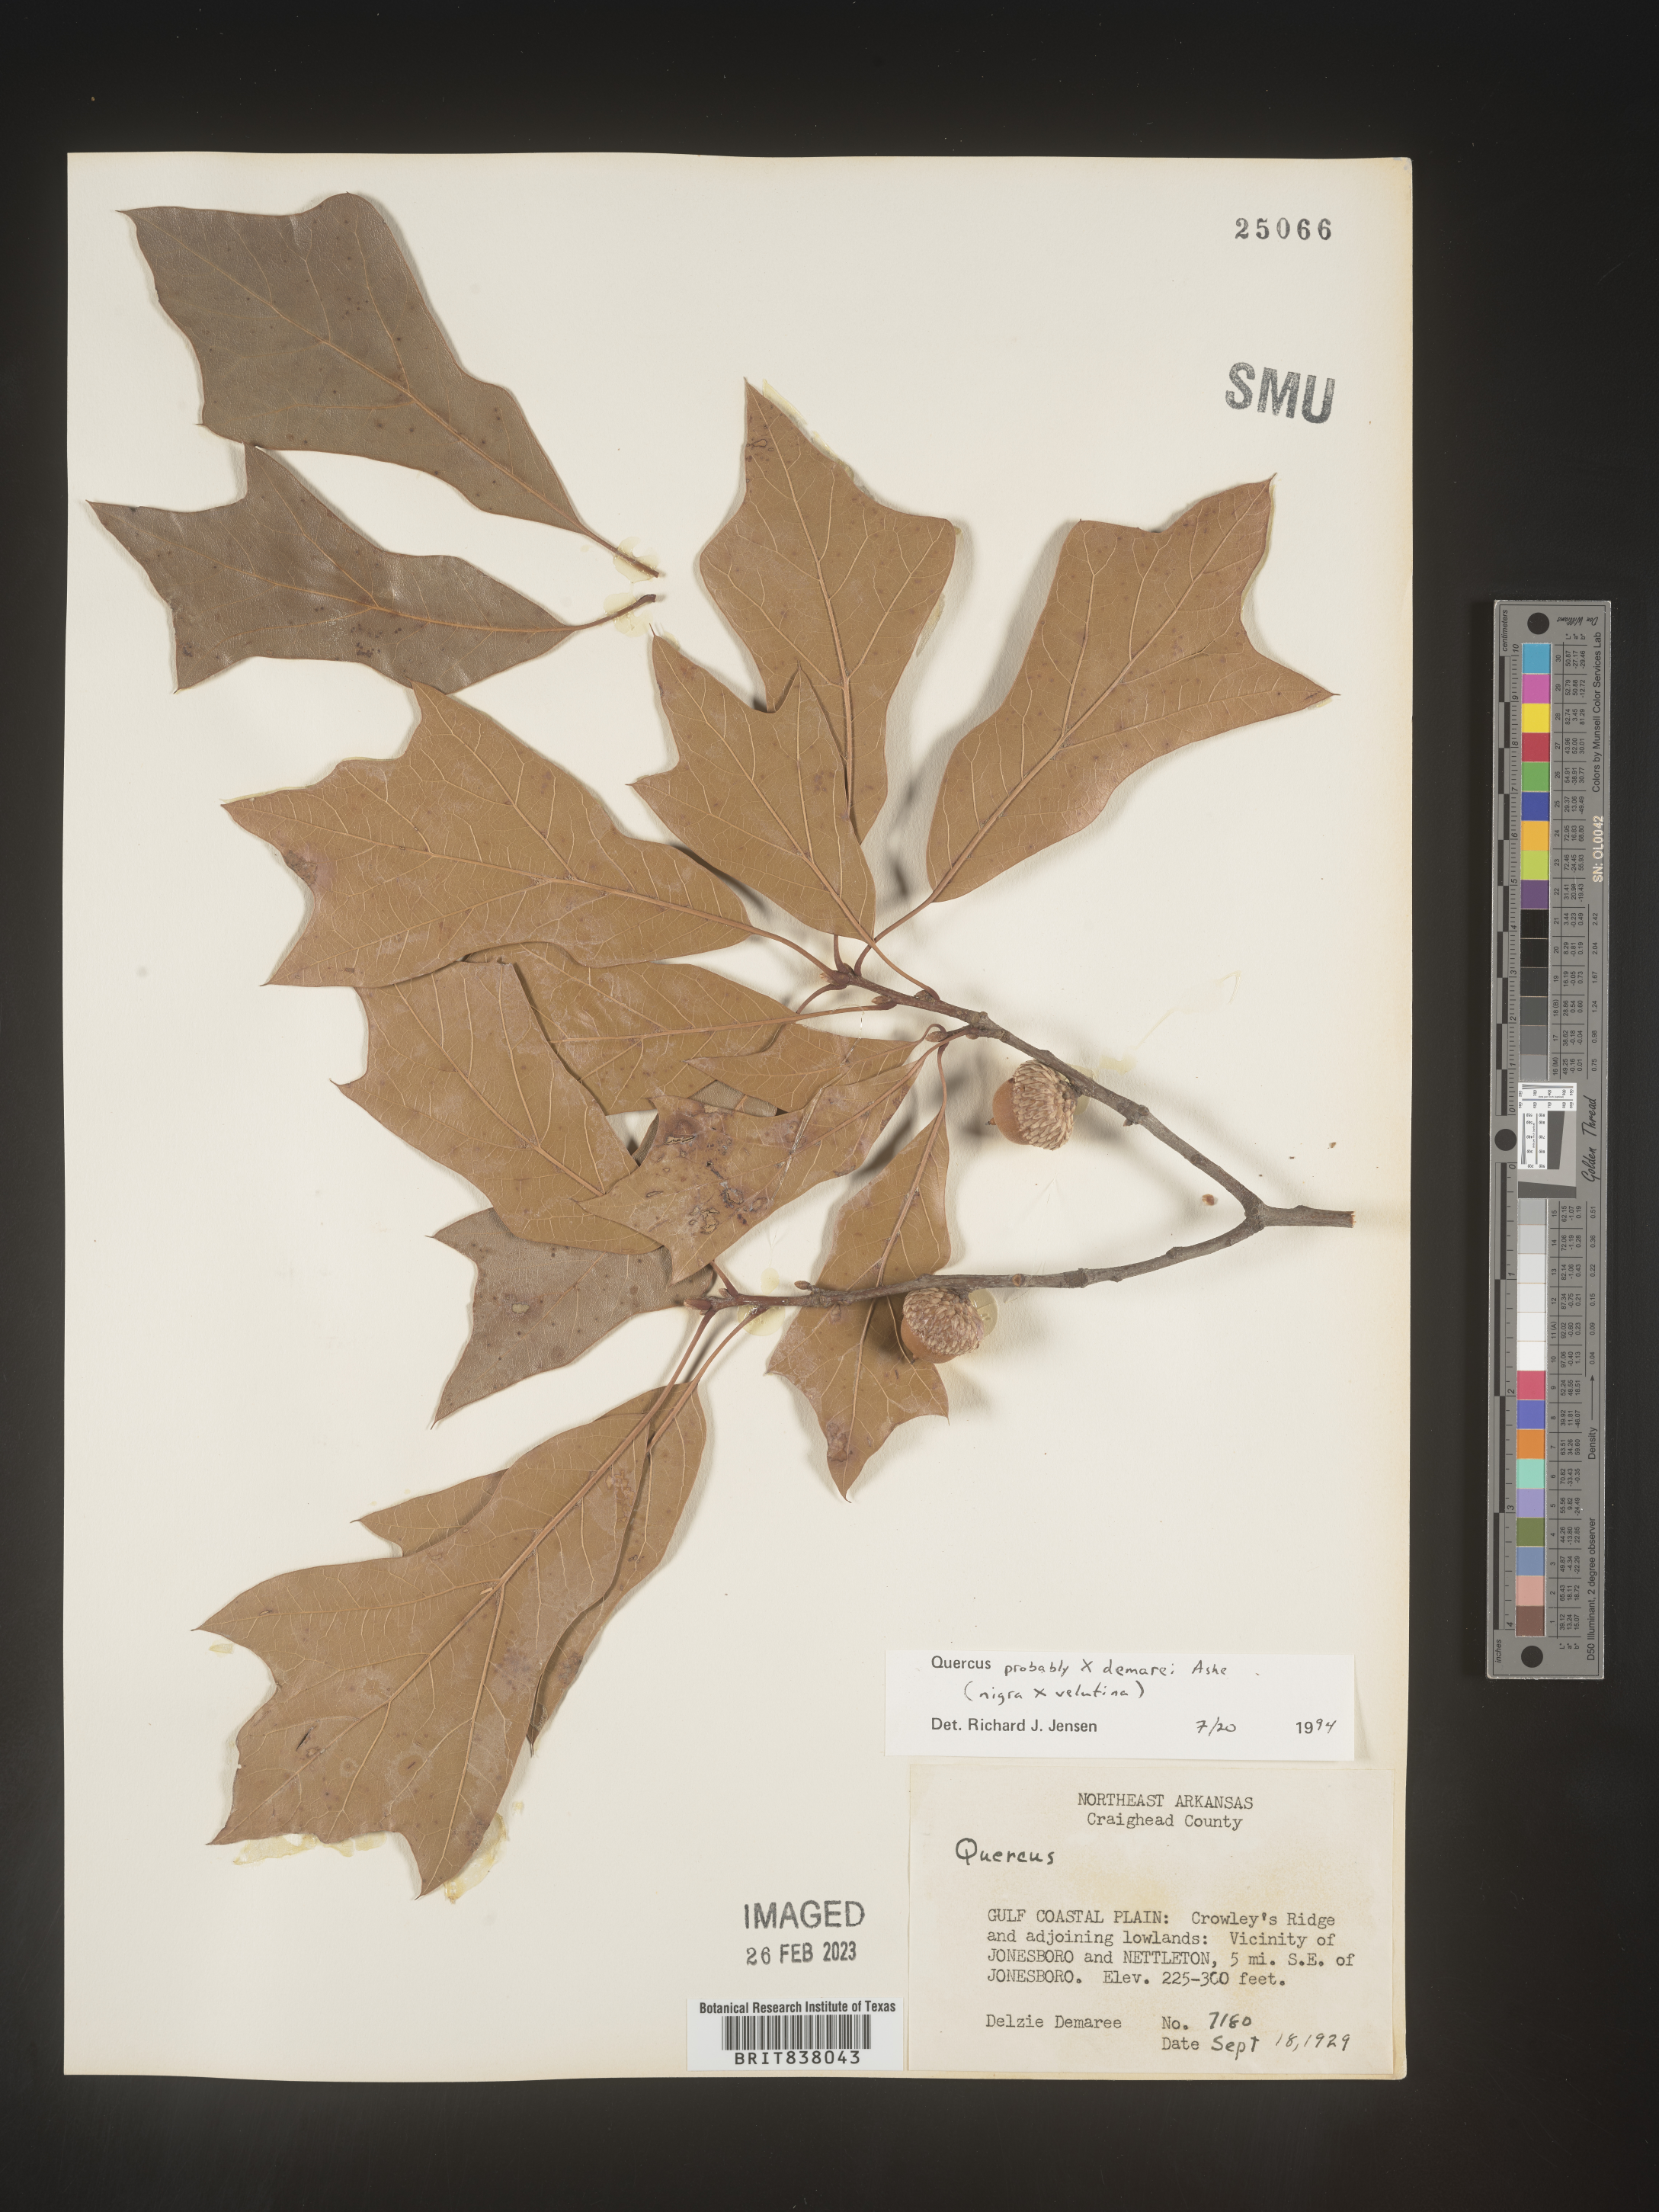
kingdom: Plantae
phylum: Tracheophyta
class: Magnoliopsida
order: Fagales
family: Fagaceae
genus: Quercus
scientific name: Quercus
